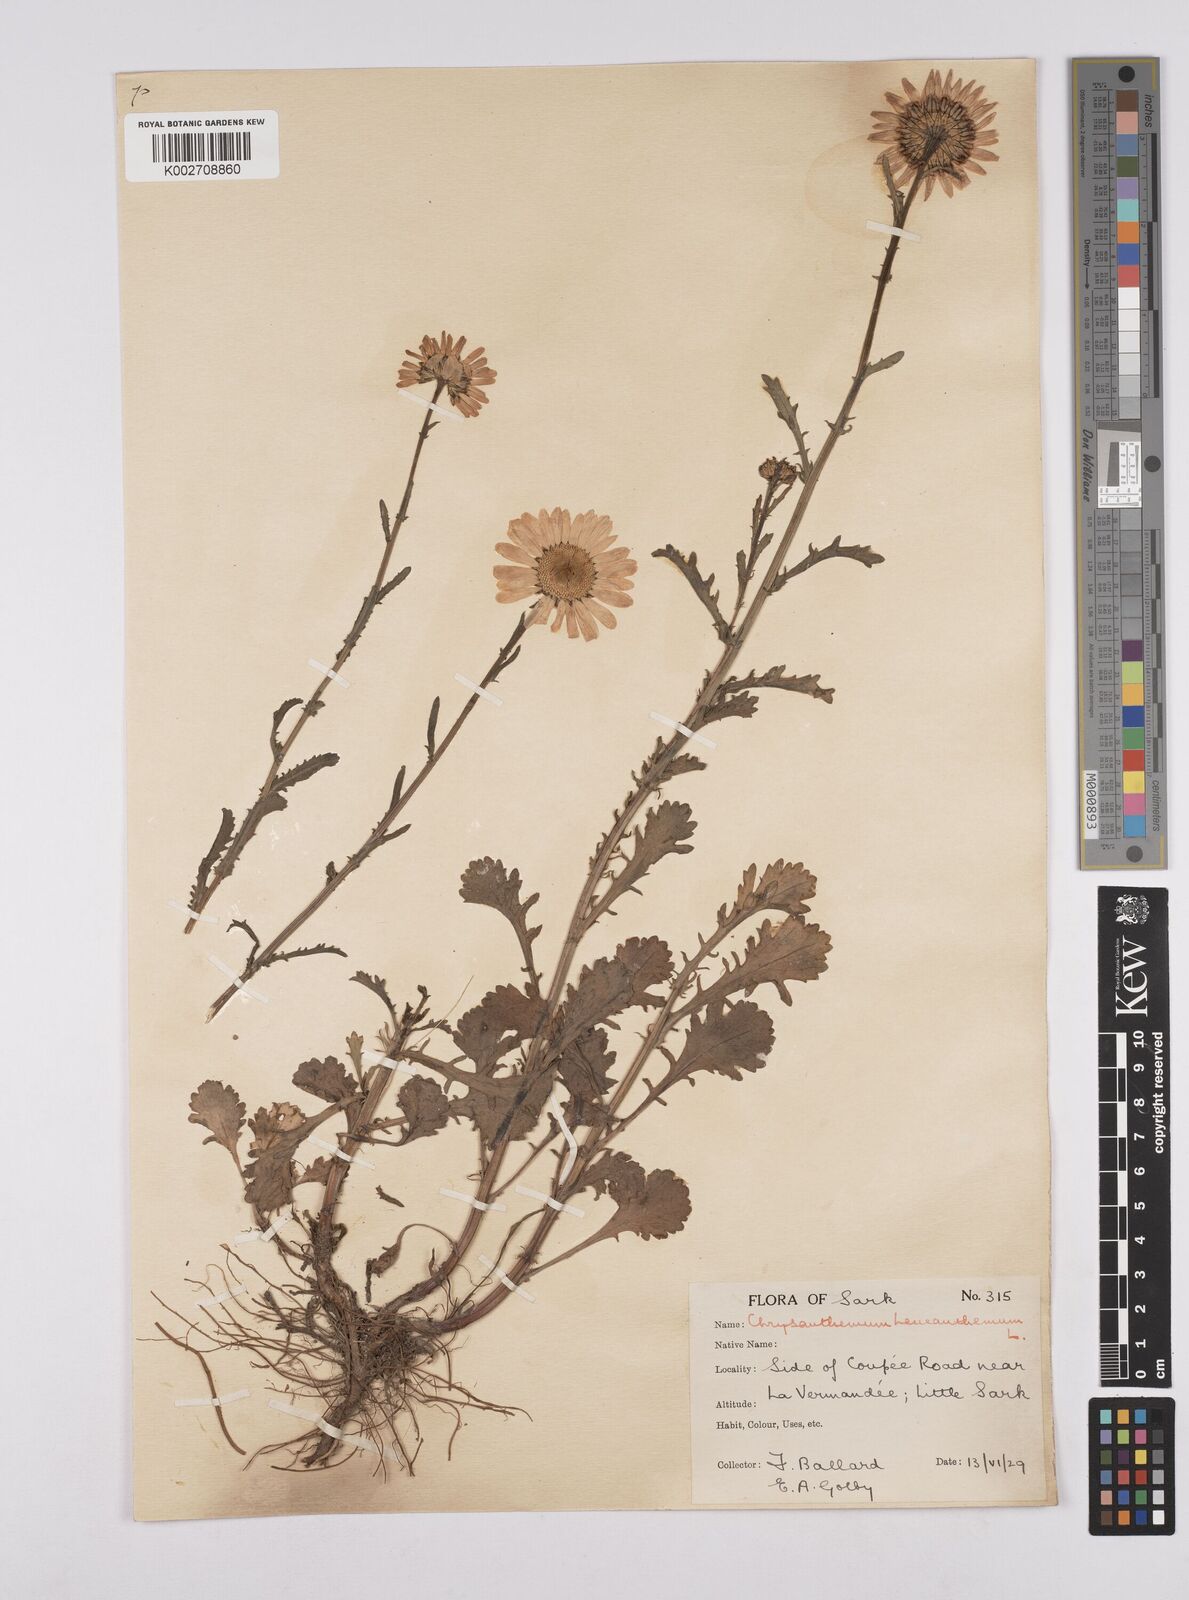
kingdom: Plantae
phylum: Tracheophyta
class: Magnoliopsida
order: Asterales
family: Asteraceae
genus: Leucanthemum
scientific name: Leucanthemum
